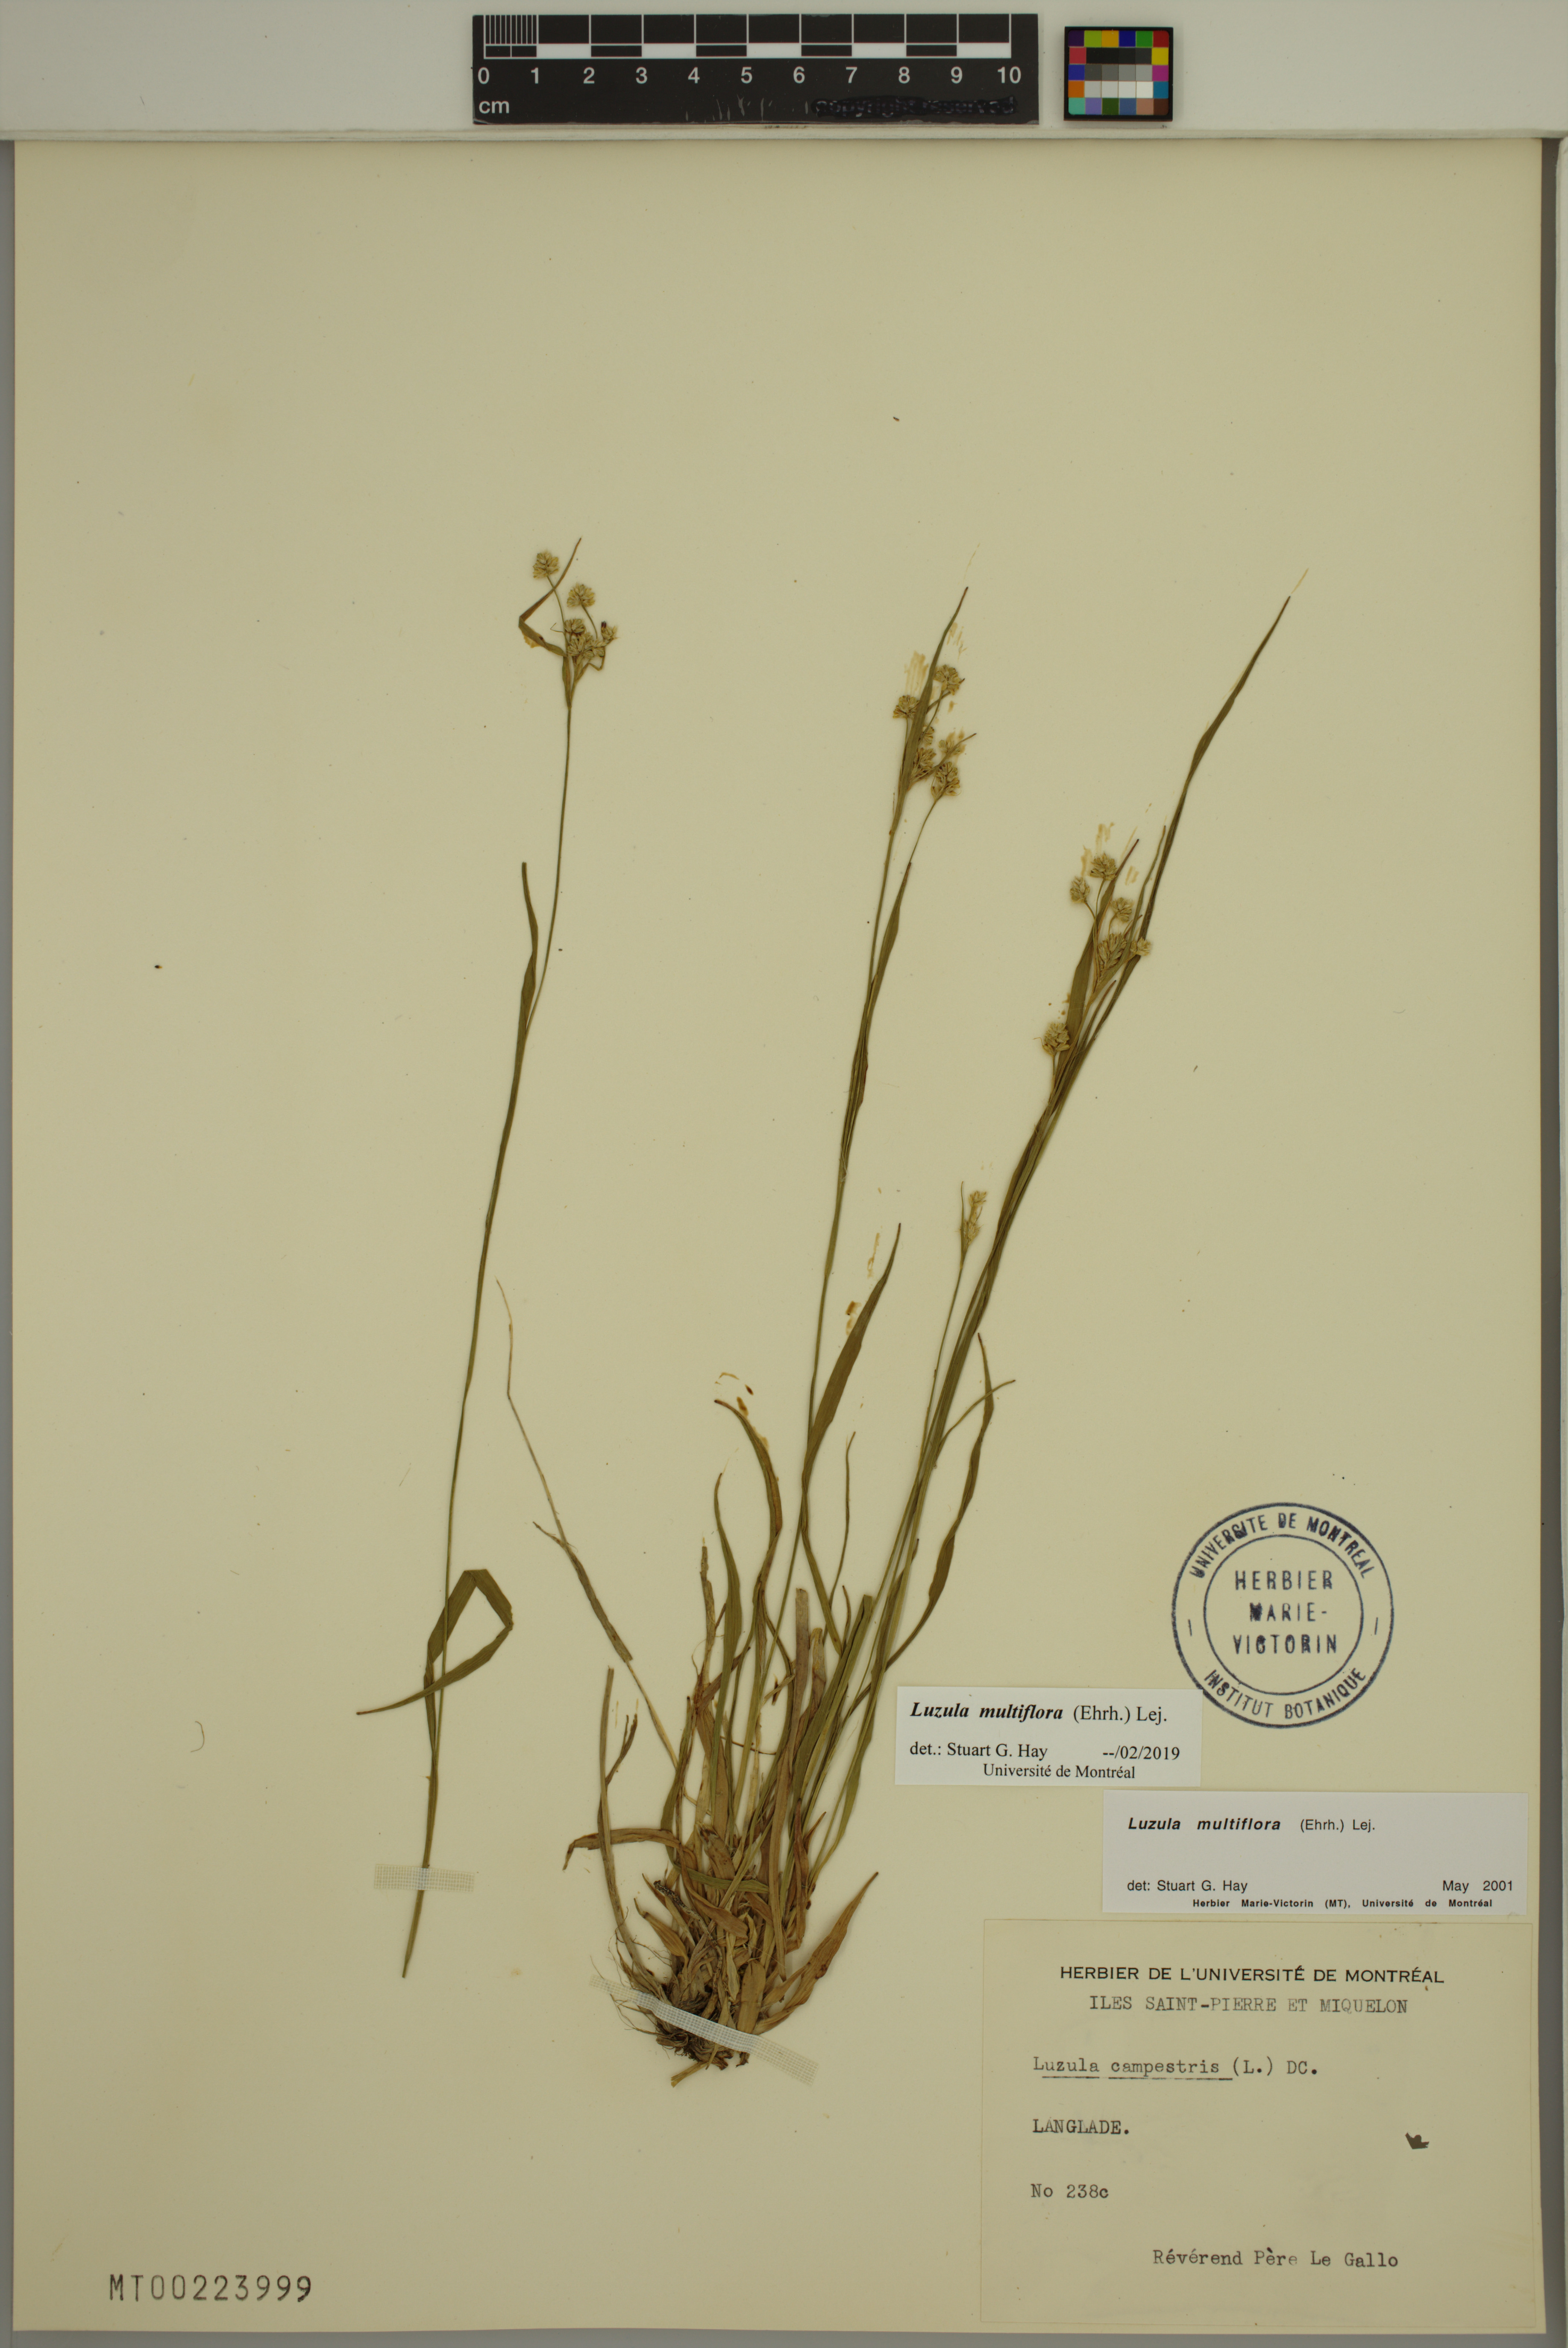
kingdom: Plantae
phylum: Tracheophyta
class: Liliopsida
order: Poales
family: Juncaceae
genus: Luzula
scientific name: Luzula multiflora
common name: Heath wood-rush
